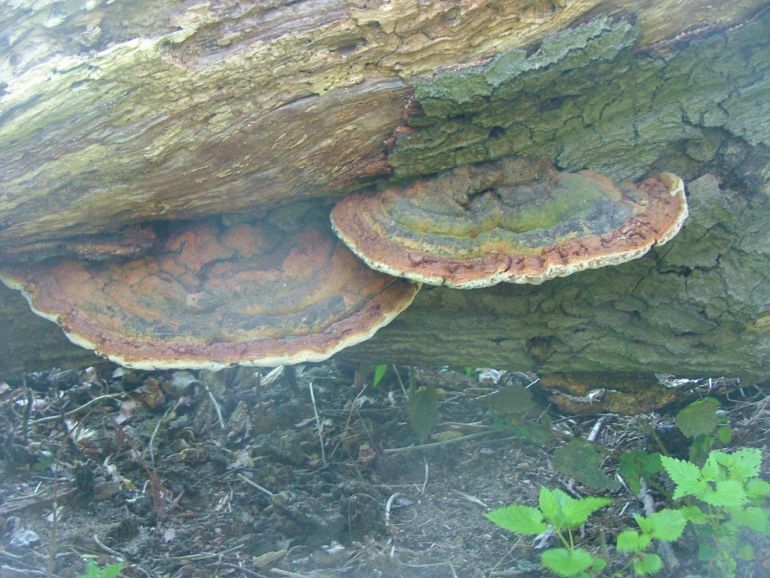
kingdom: Fungi
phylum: Basidiomycota
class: Agaricomycetes
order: Polyporales
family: Polyporaceae
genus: Ganoderma
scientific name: Ganoderma pfeifferi
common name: kobberrød lakporesvamp
